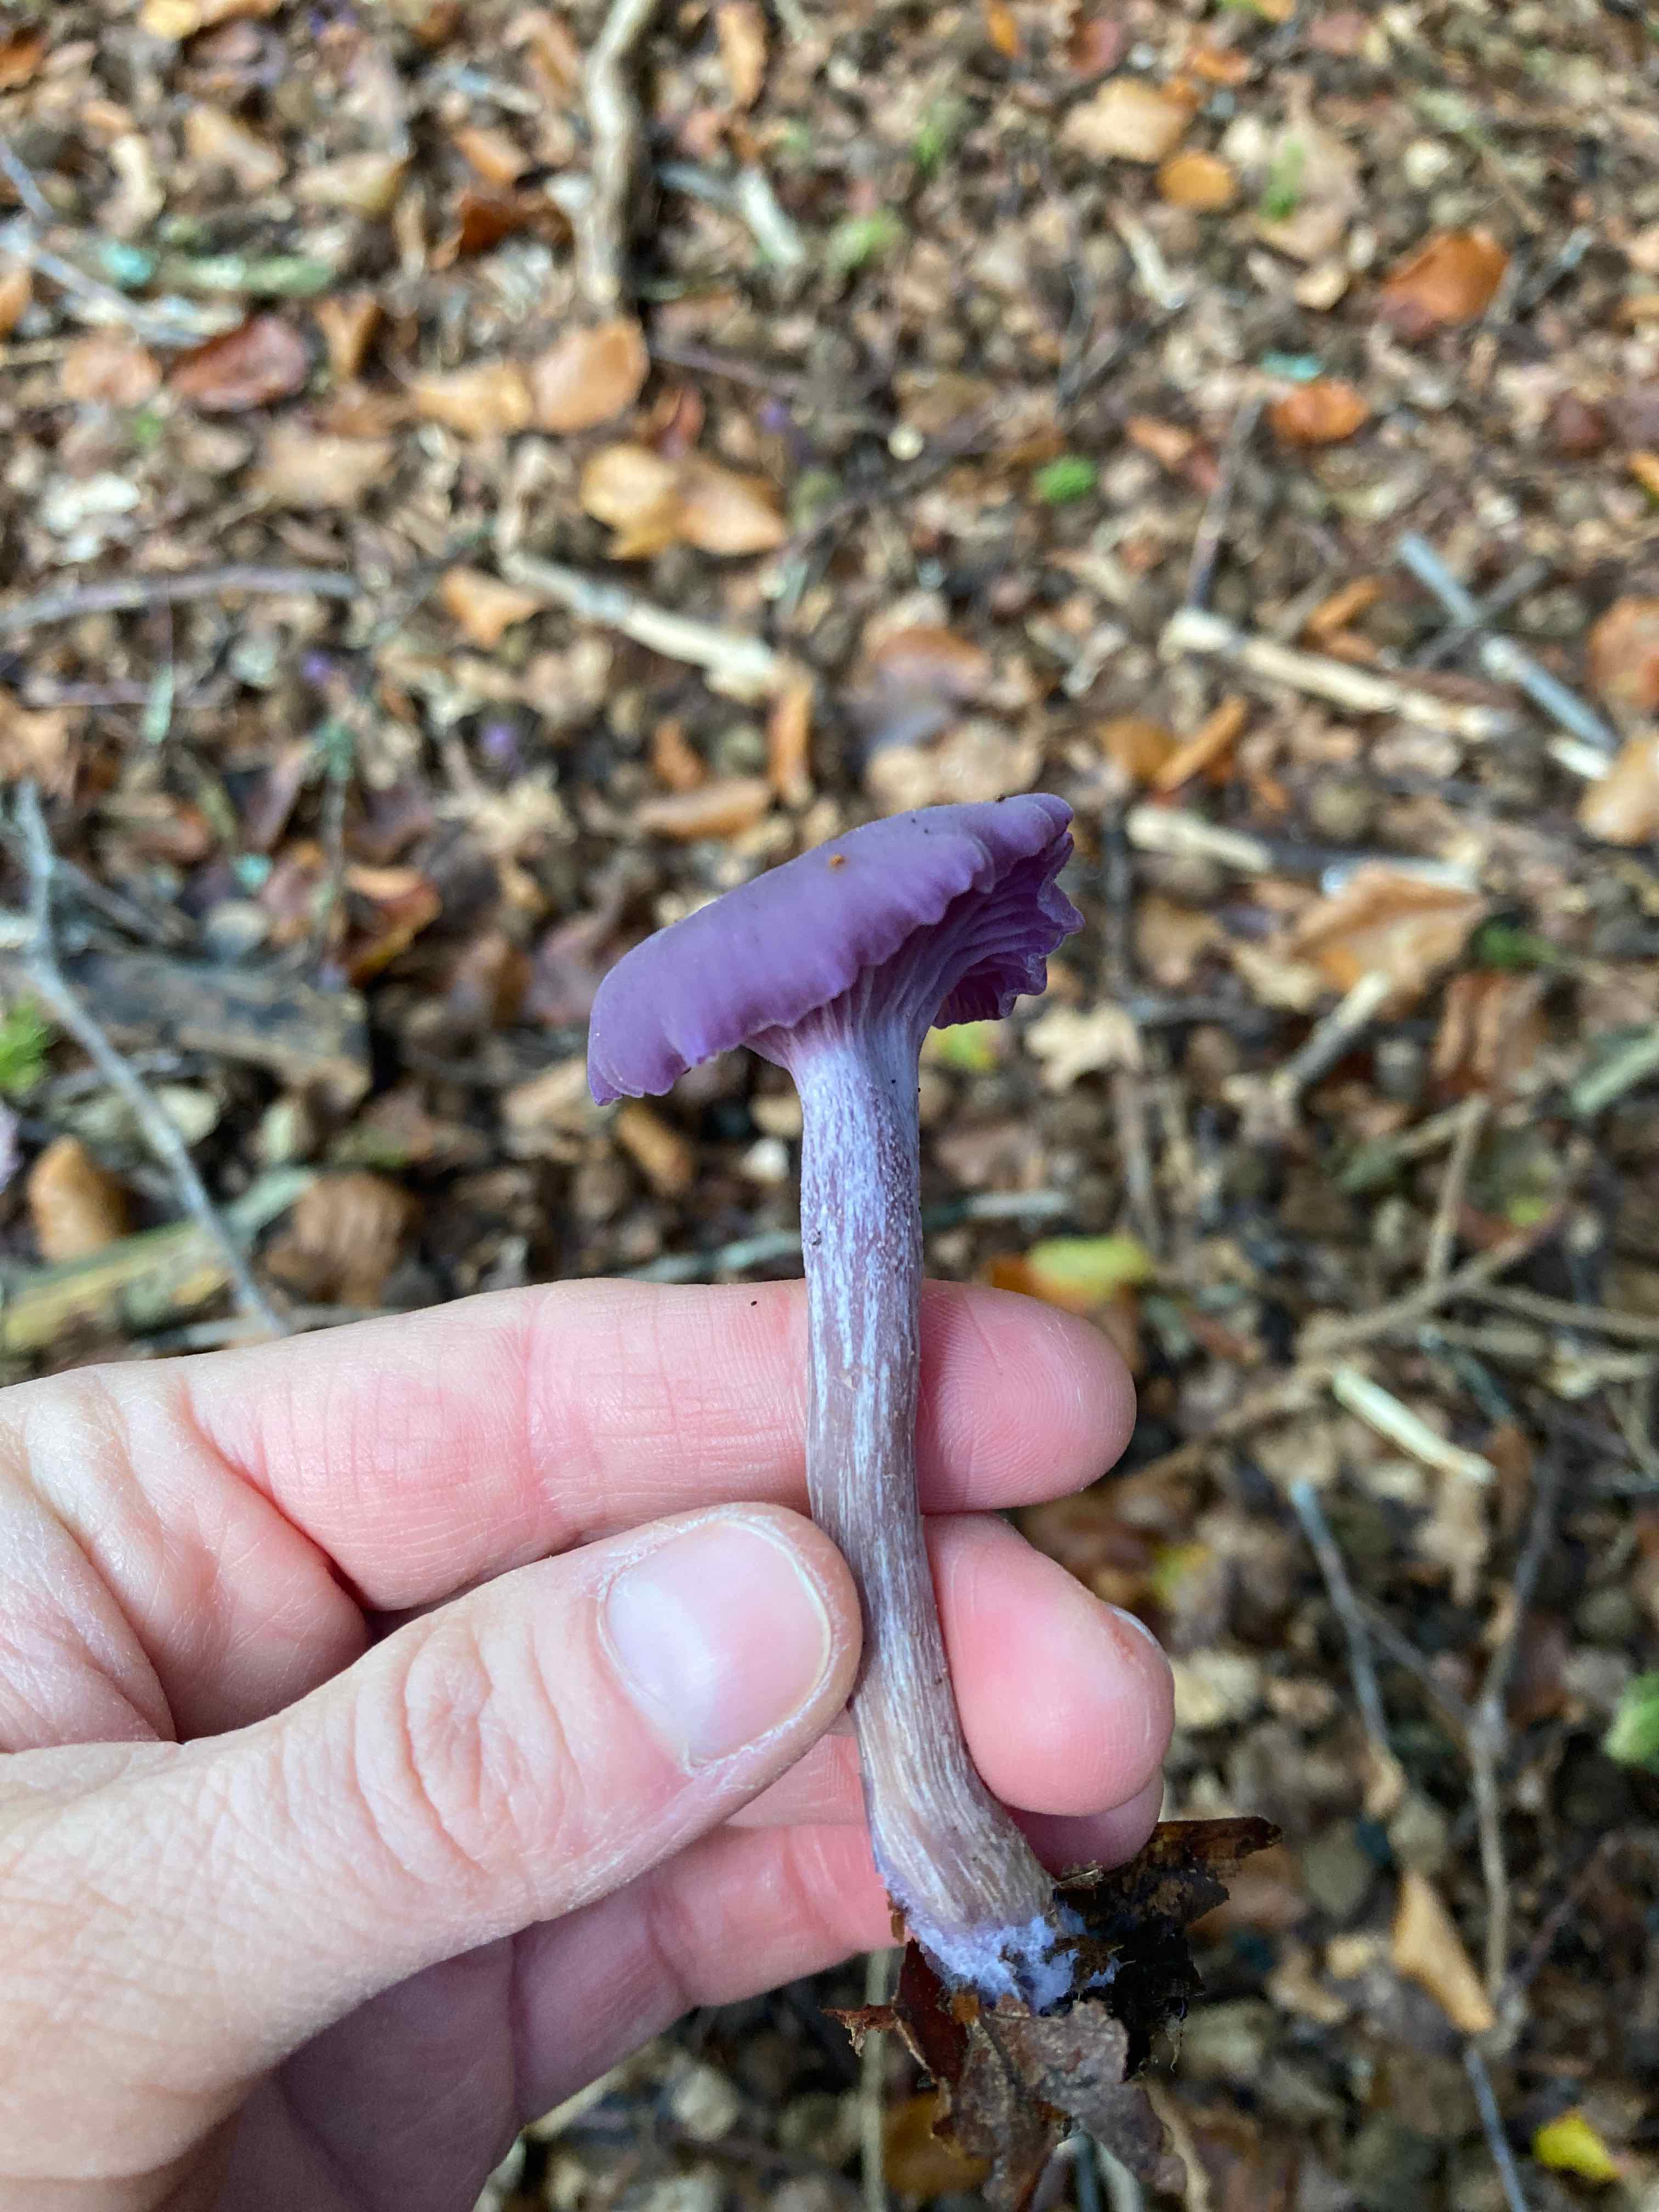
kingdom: Fungi
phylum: Basidiomycota
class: Agaricomycetes
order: Agaricales
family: Hydnangiaceae
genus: Laccaria
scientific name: Laccaria amethystina
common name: violet ametysthat
